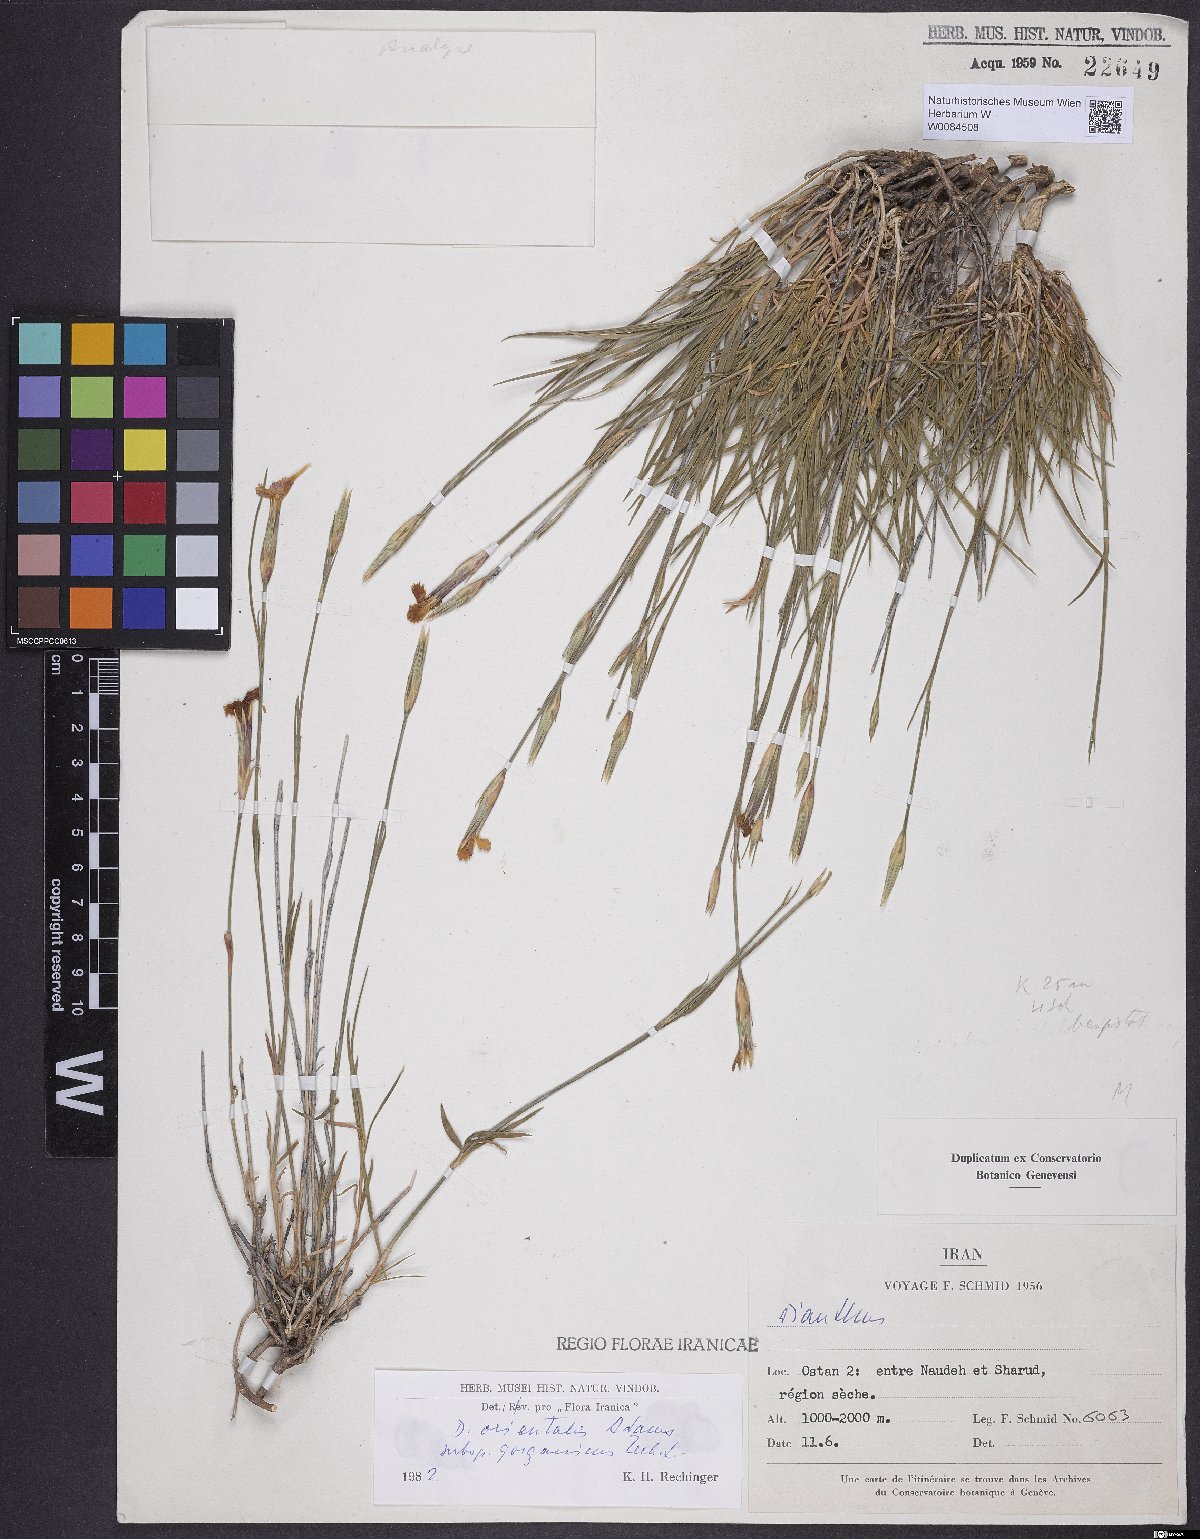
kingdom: Plantae
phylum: Tracheophyta
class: Magnoliopsida
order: Caryophyllales
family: Caryophyllaceae
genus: Dianthus
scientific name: Dianthus orientalis
